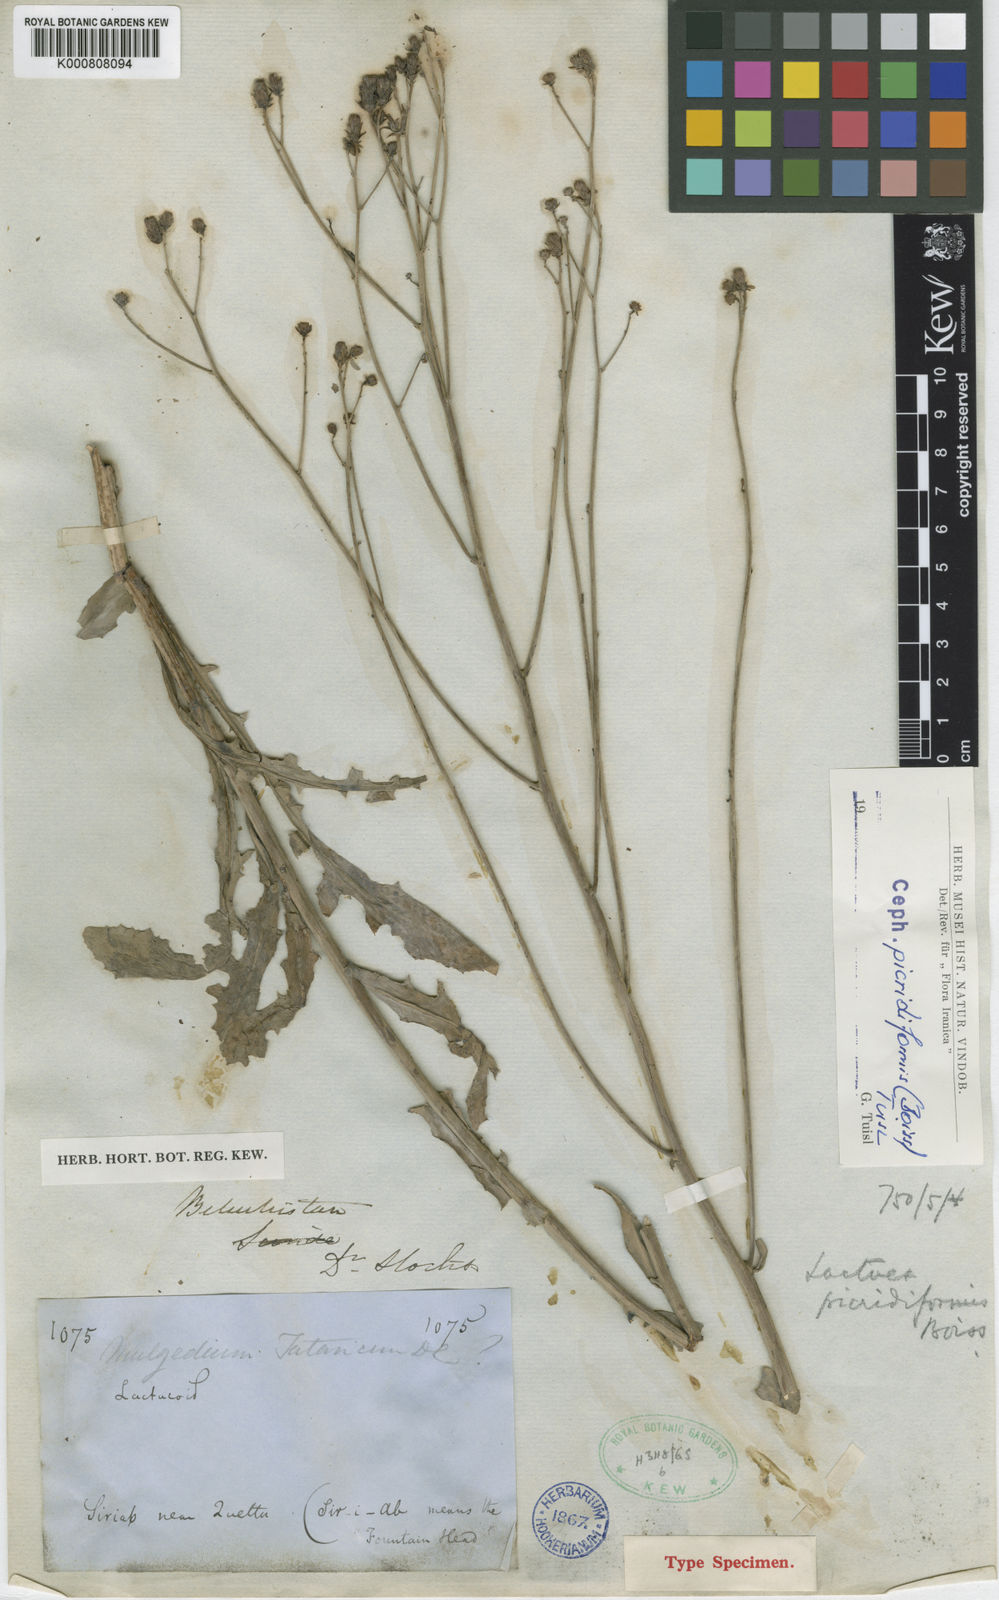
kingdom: Plantae
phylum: Tracheophyta
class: Magnoliopsida
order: Asterales
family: Asteraceae
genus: Lactuca
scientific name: Lactuca picridiformis
